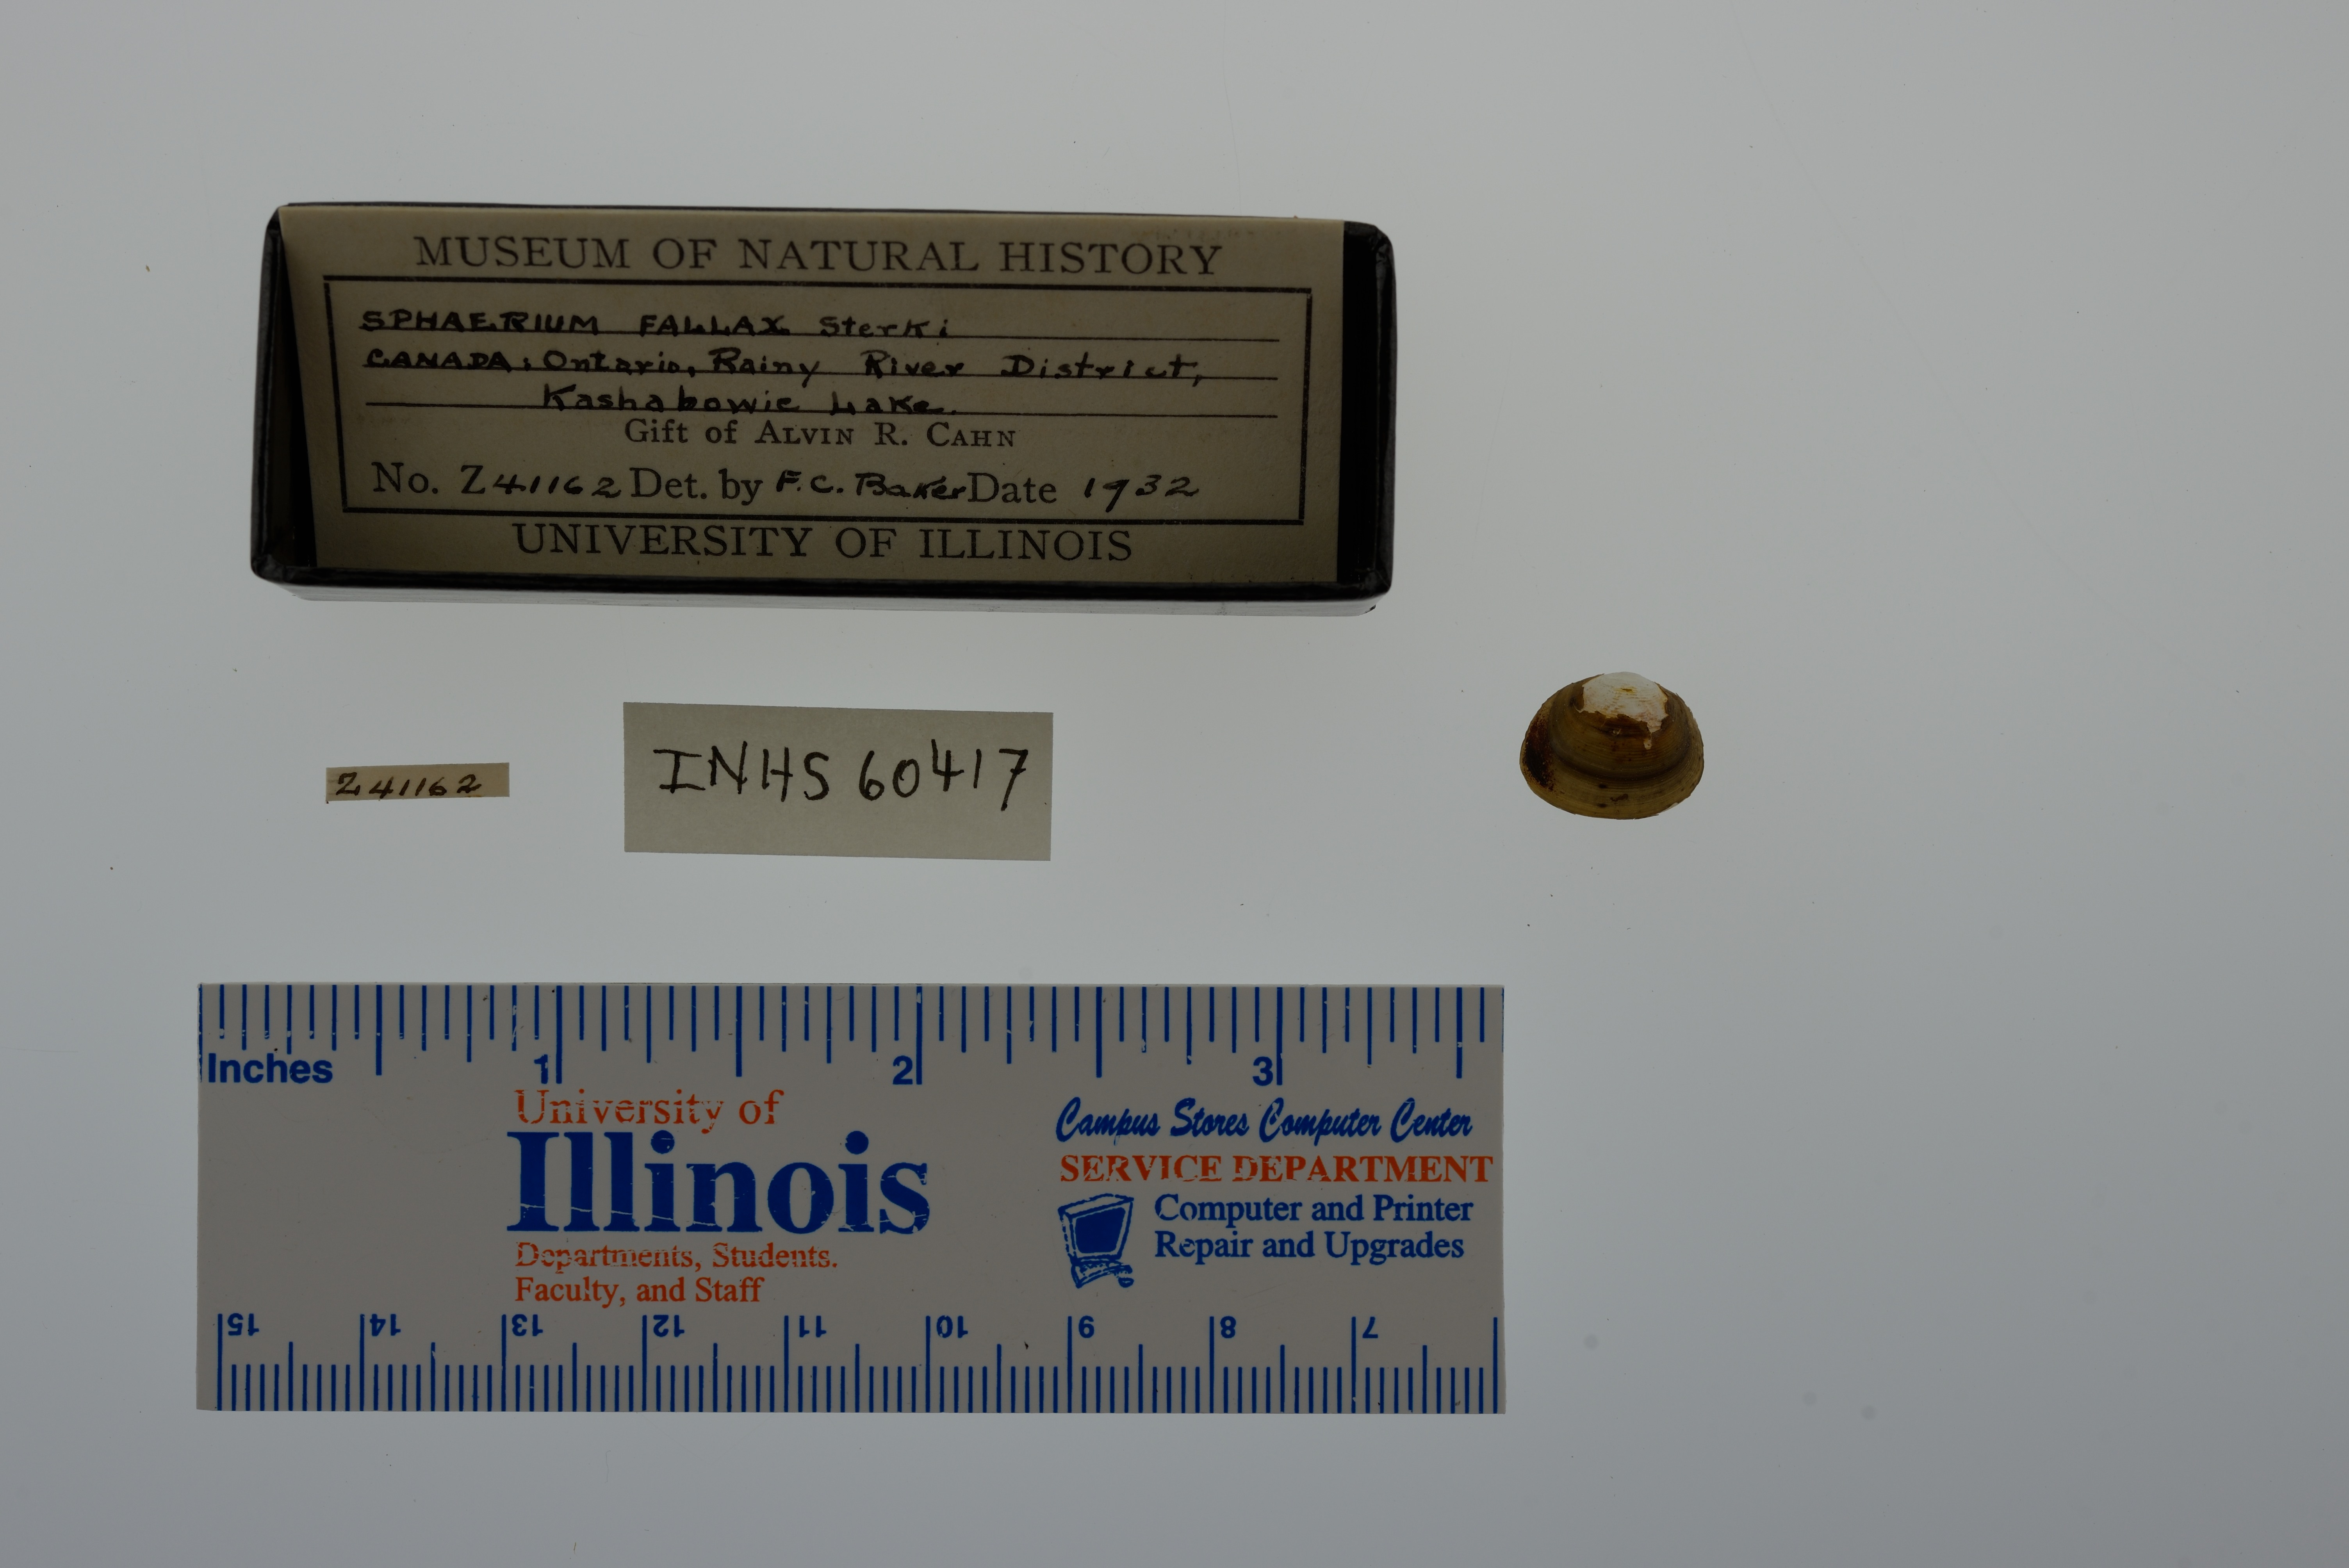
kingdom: Animalia
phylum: Mollusca
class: Bivalvia
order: Sphaeriida
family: Sphaeriidae
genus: Sphaerium
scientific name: Sphaerium simile
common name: Grooved fingernailclam
